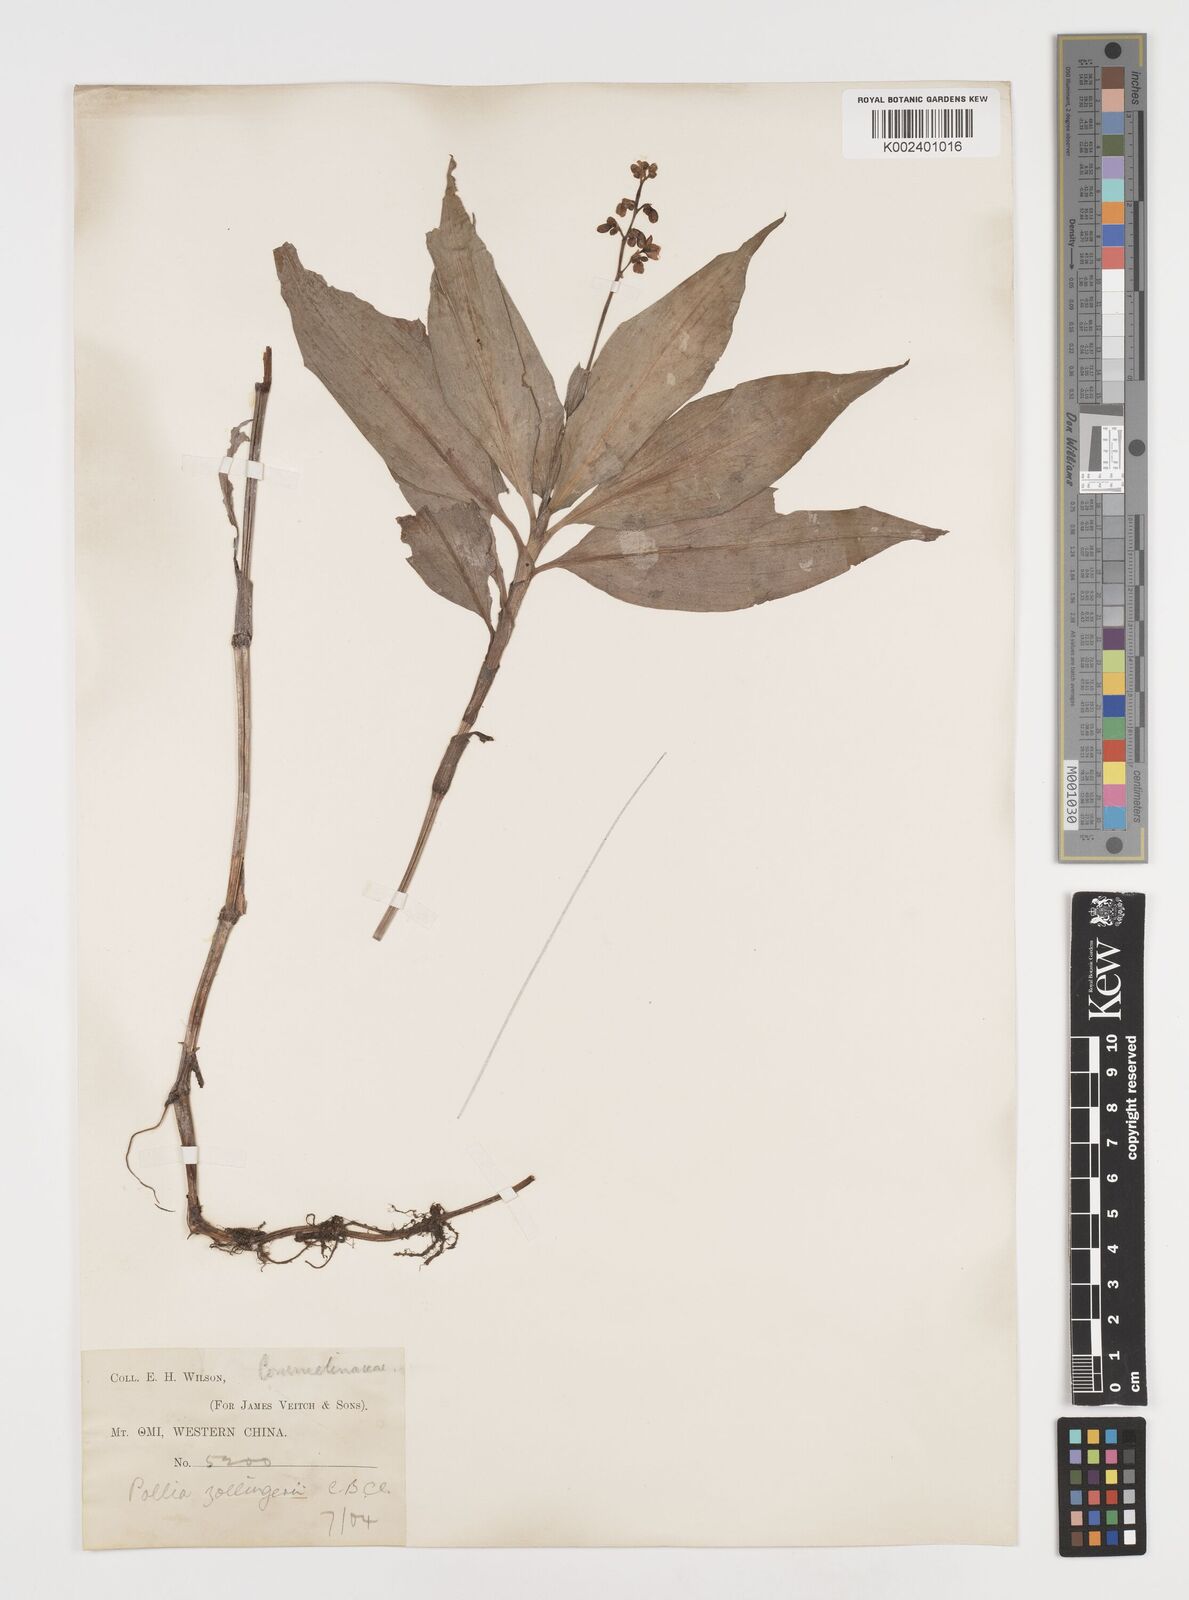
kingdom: Plantae
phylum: Tracheophyta
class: Liliopsida
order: Commelinales
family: Commelinaceae
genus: Pollia
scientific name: Pollia zollingeri
